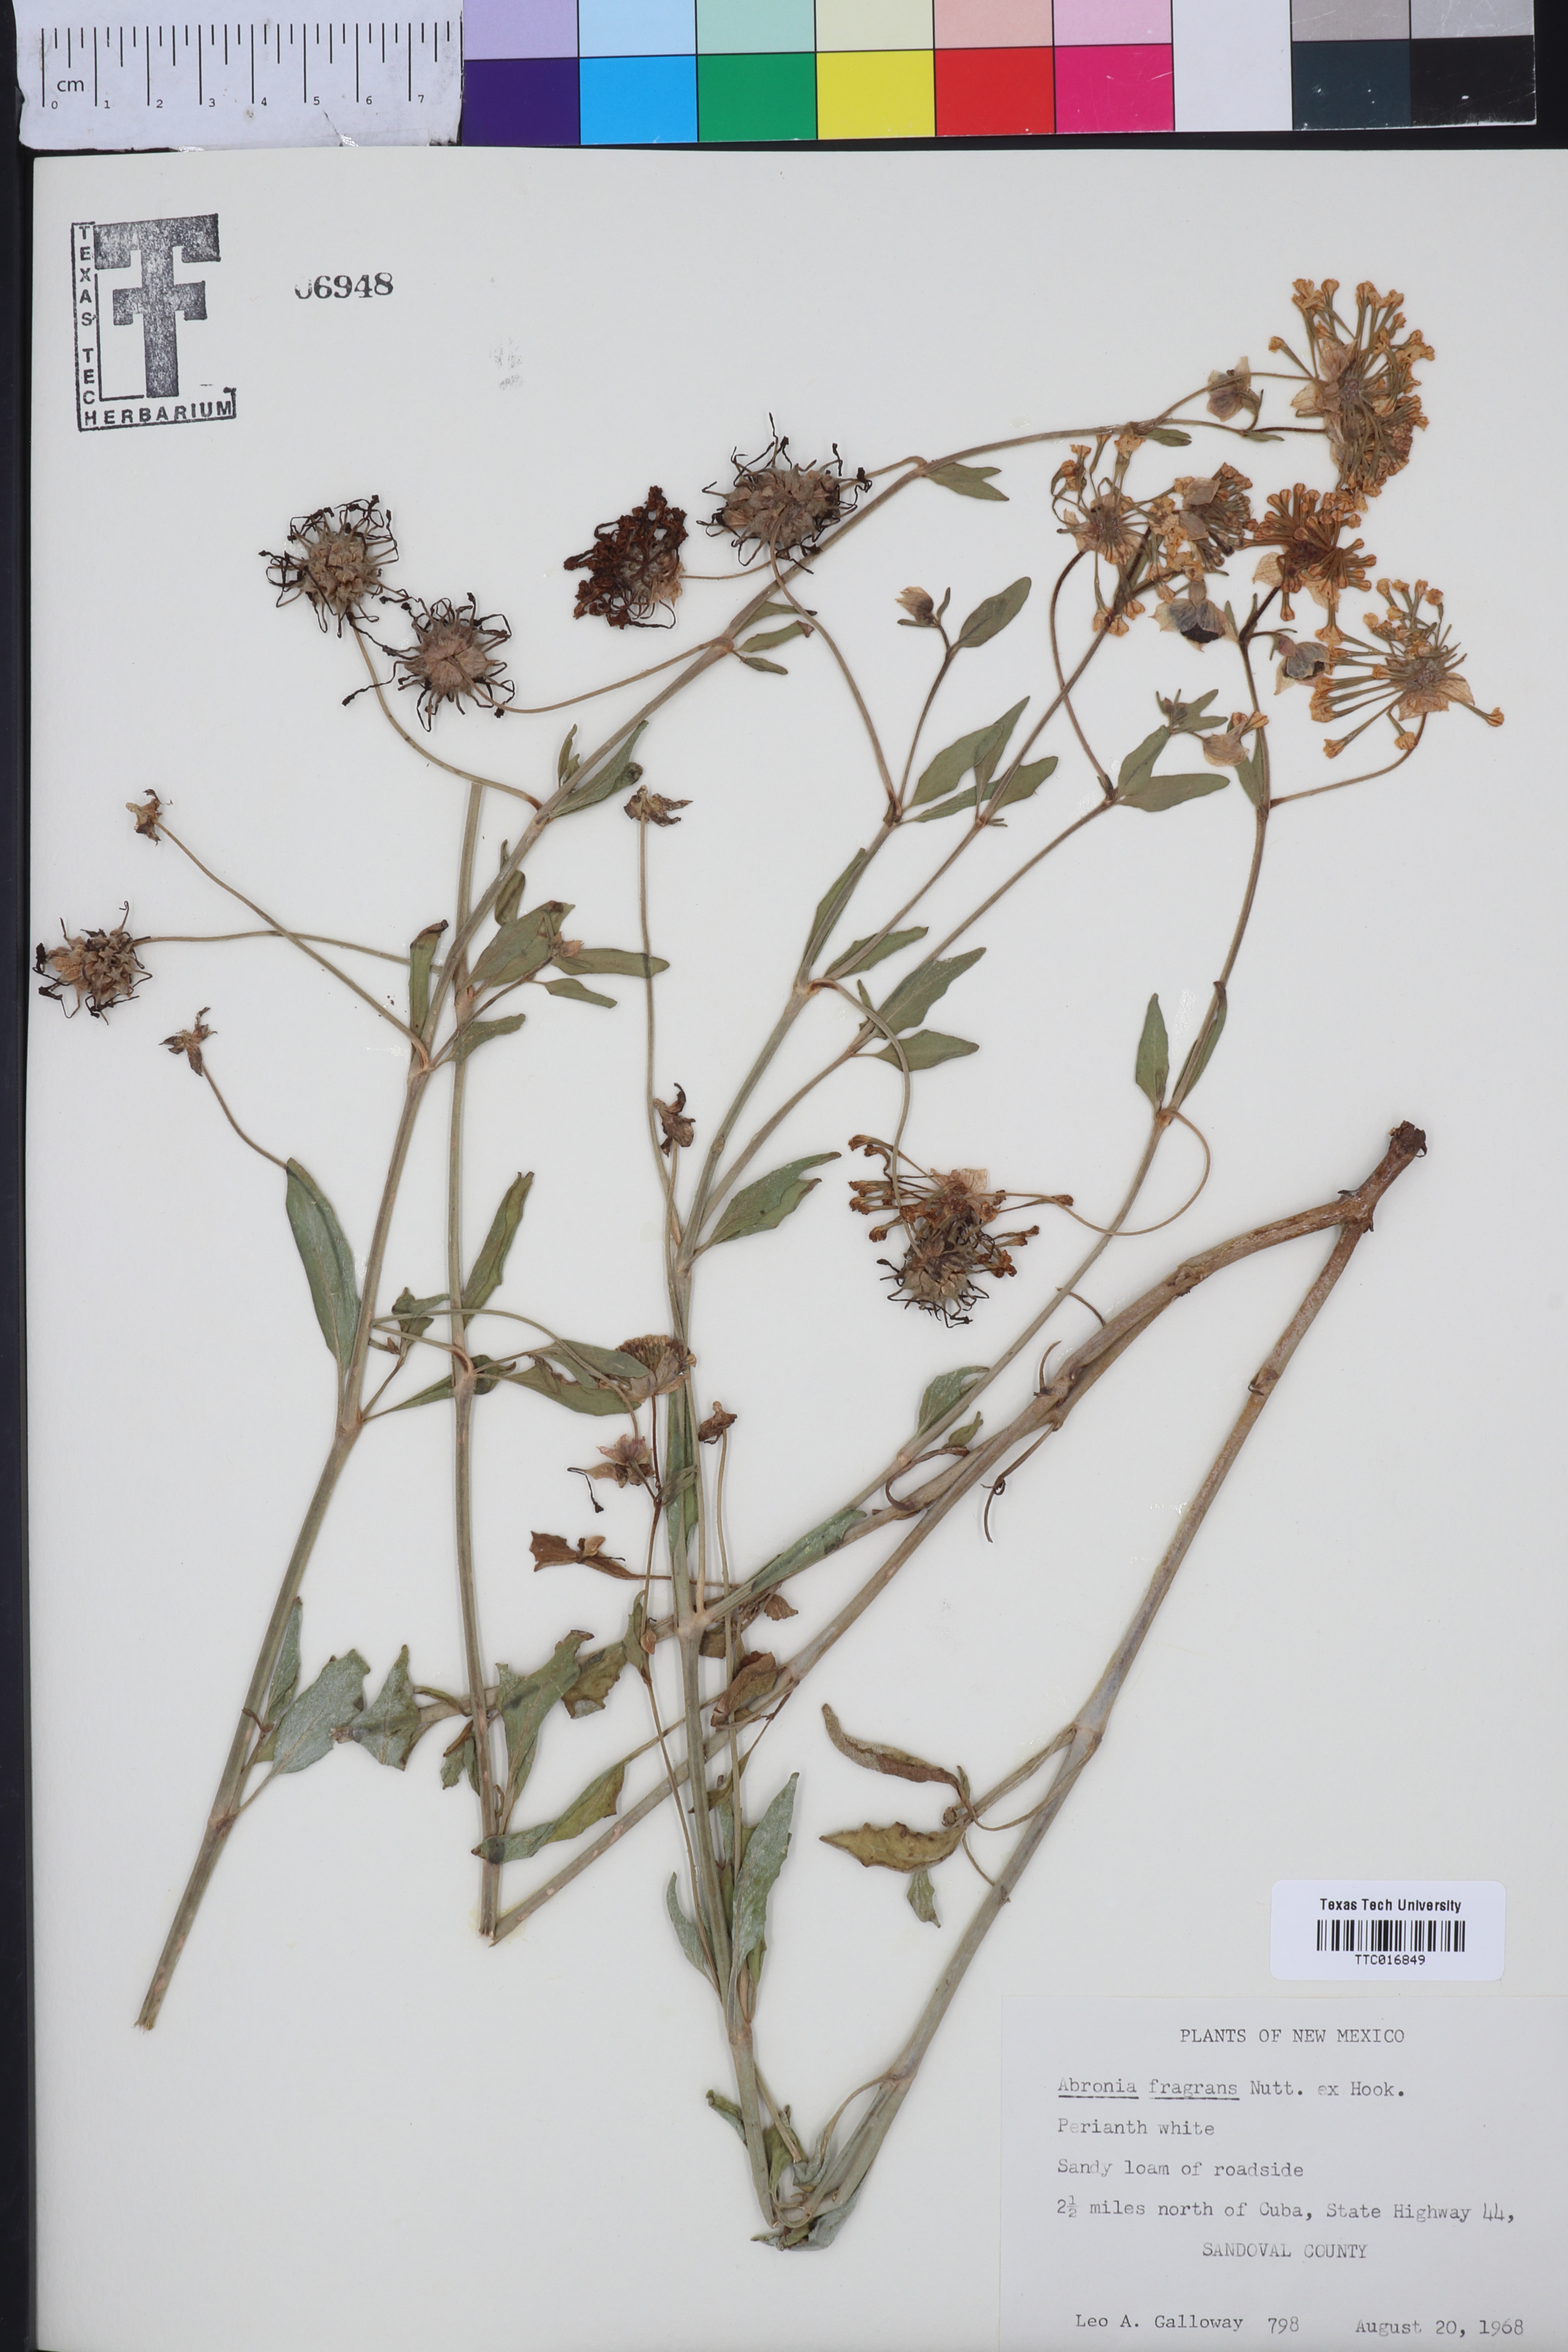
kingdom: Plantae
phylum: Tracheophyta
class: Magnoliopsida
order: Caryophyllales
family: Nyctaginaceae
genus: Abronia
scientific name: Abronia fragrans
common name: Fragrant sand-verbena
